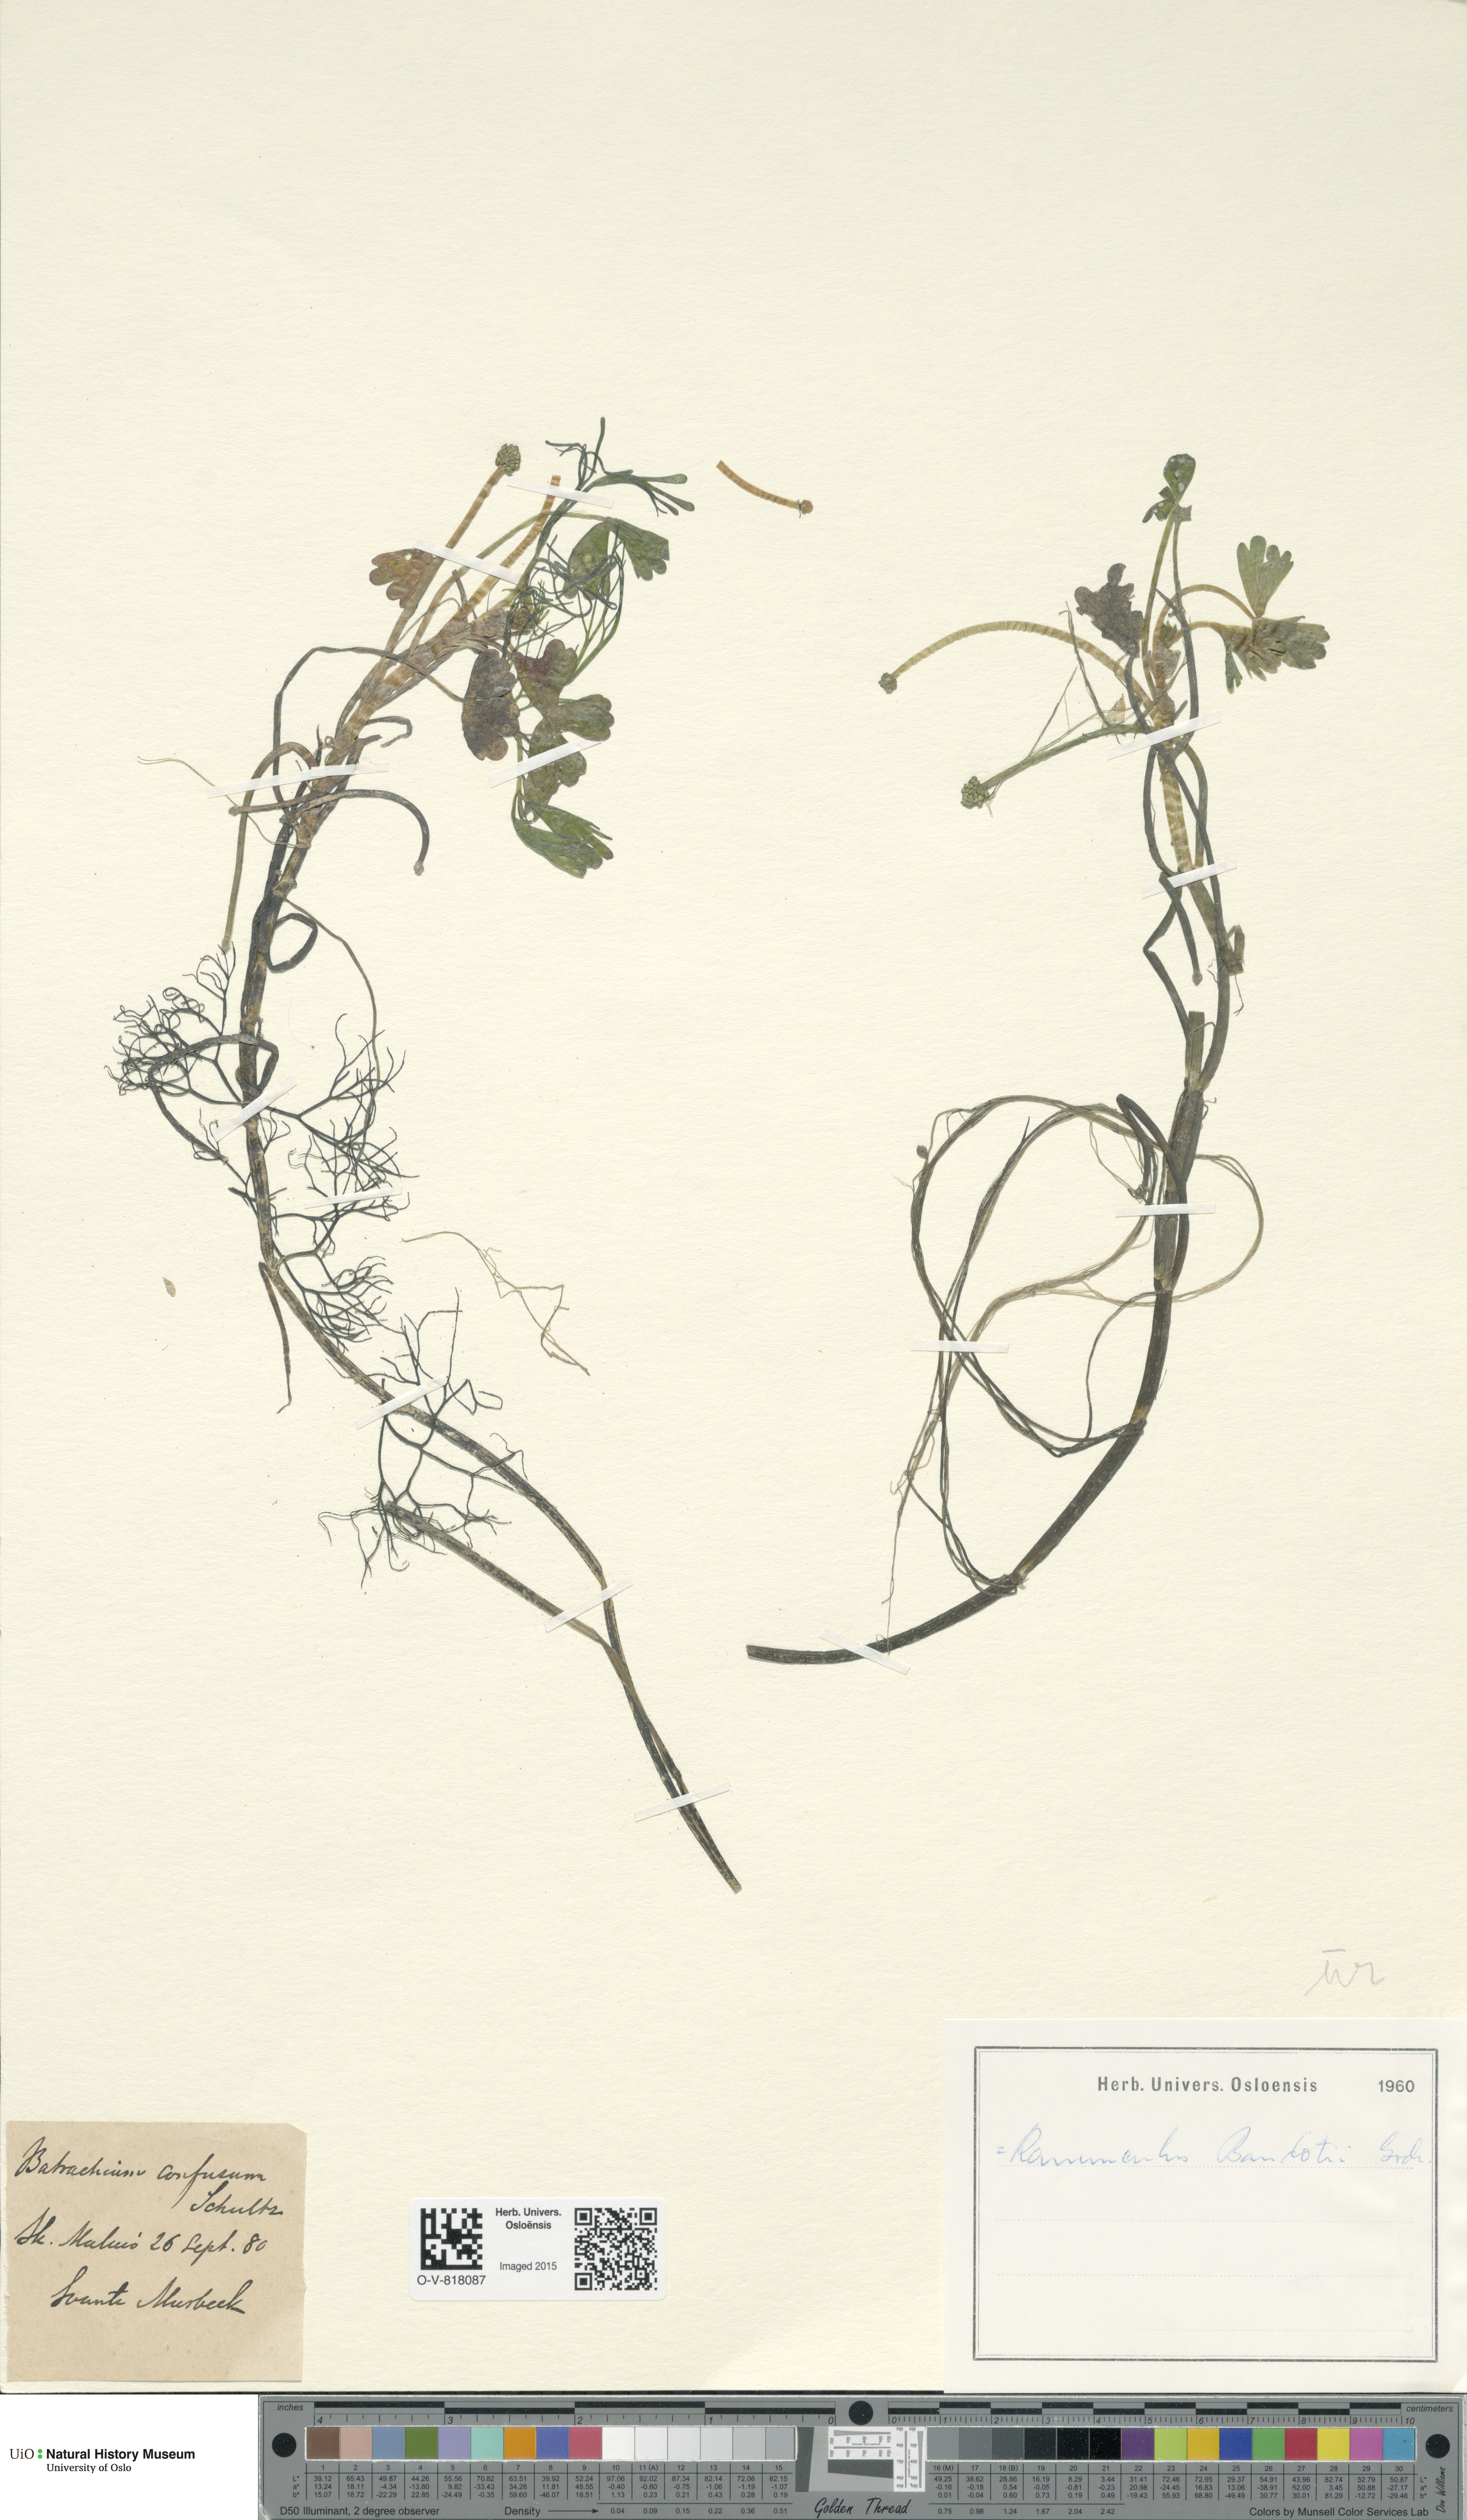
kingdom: Plantae
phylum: Tracheophyta
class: Magnoliopsida
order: Ranunculales
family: Ranunculaceae
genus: Ranunculus
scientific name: Ranunculus peltatus
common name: Pond water-crowfoot
